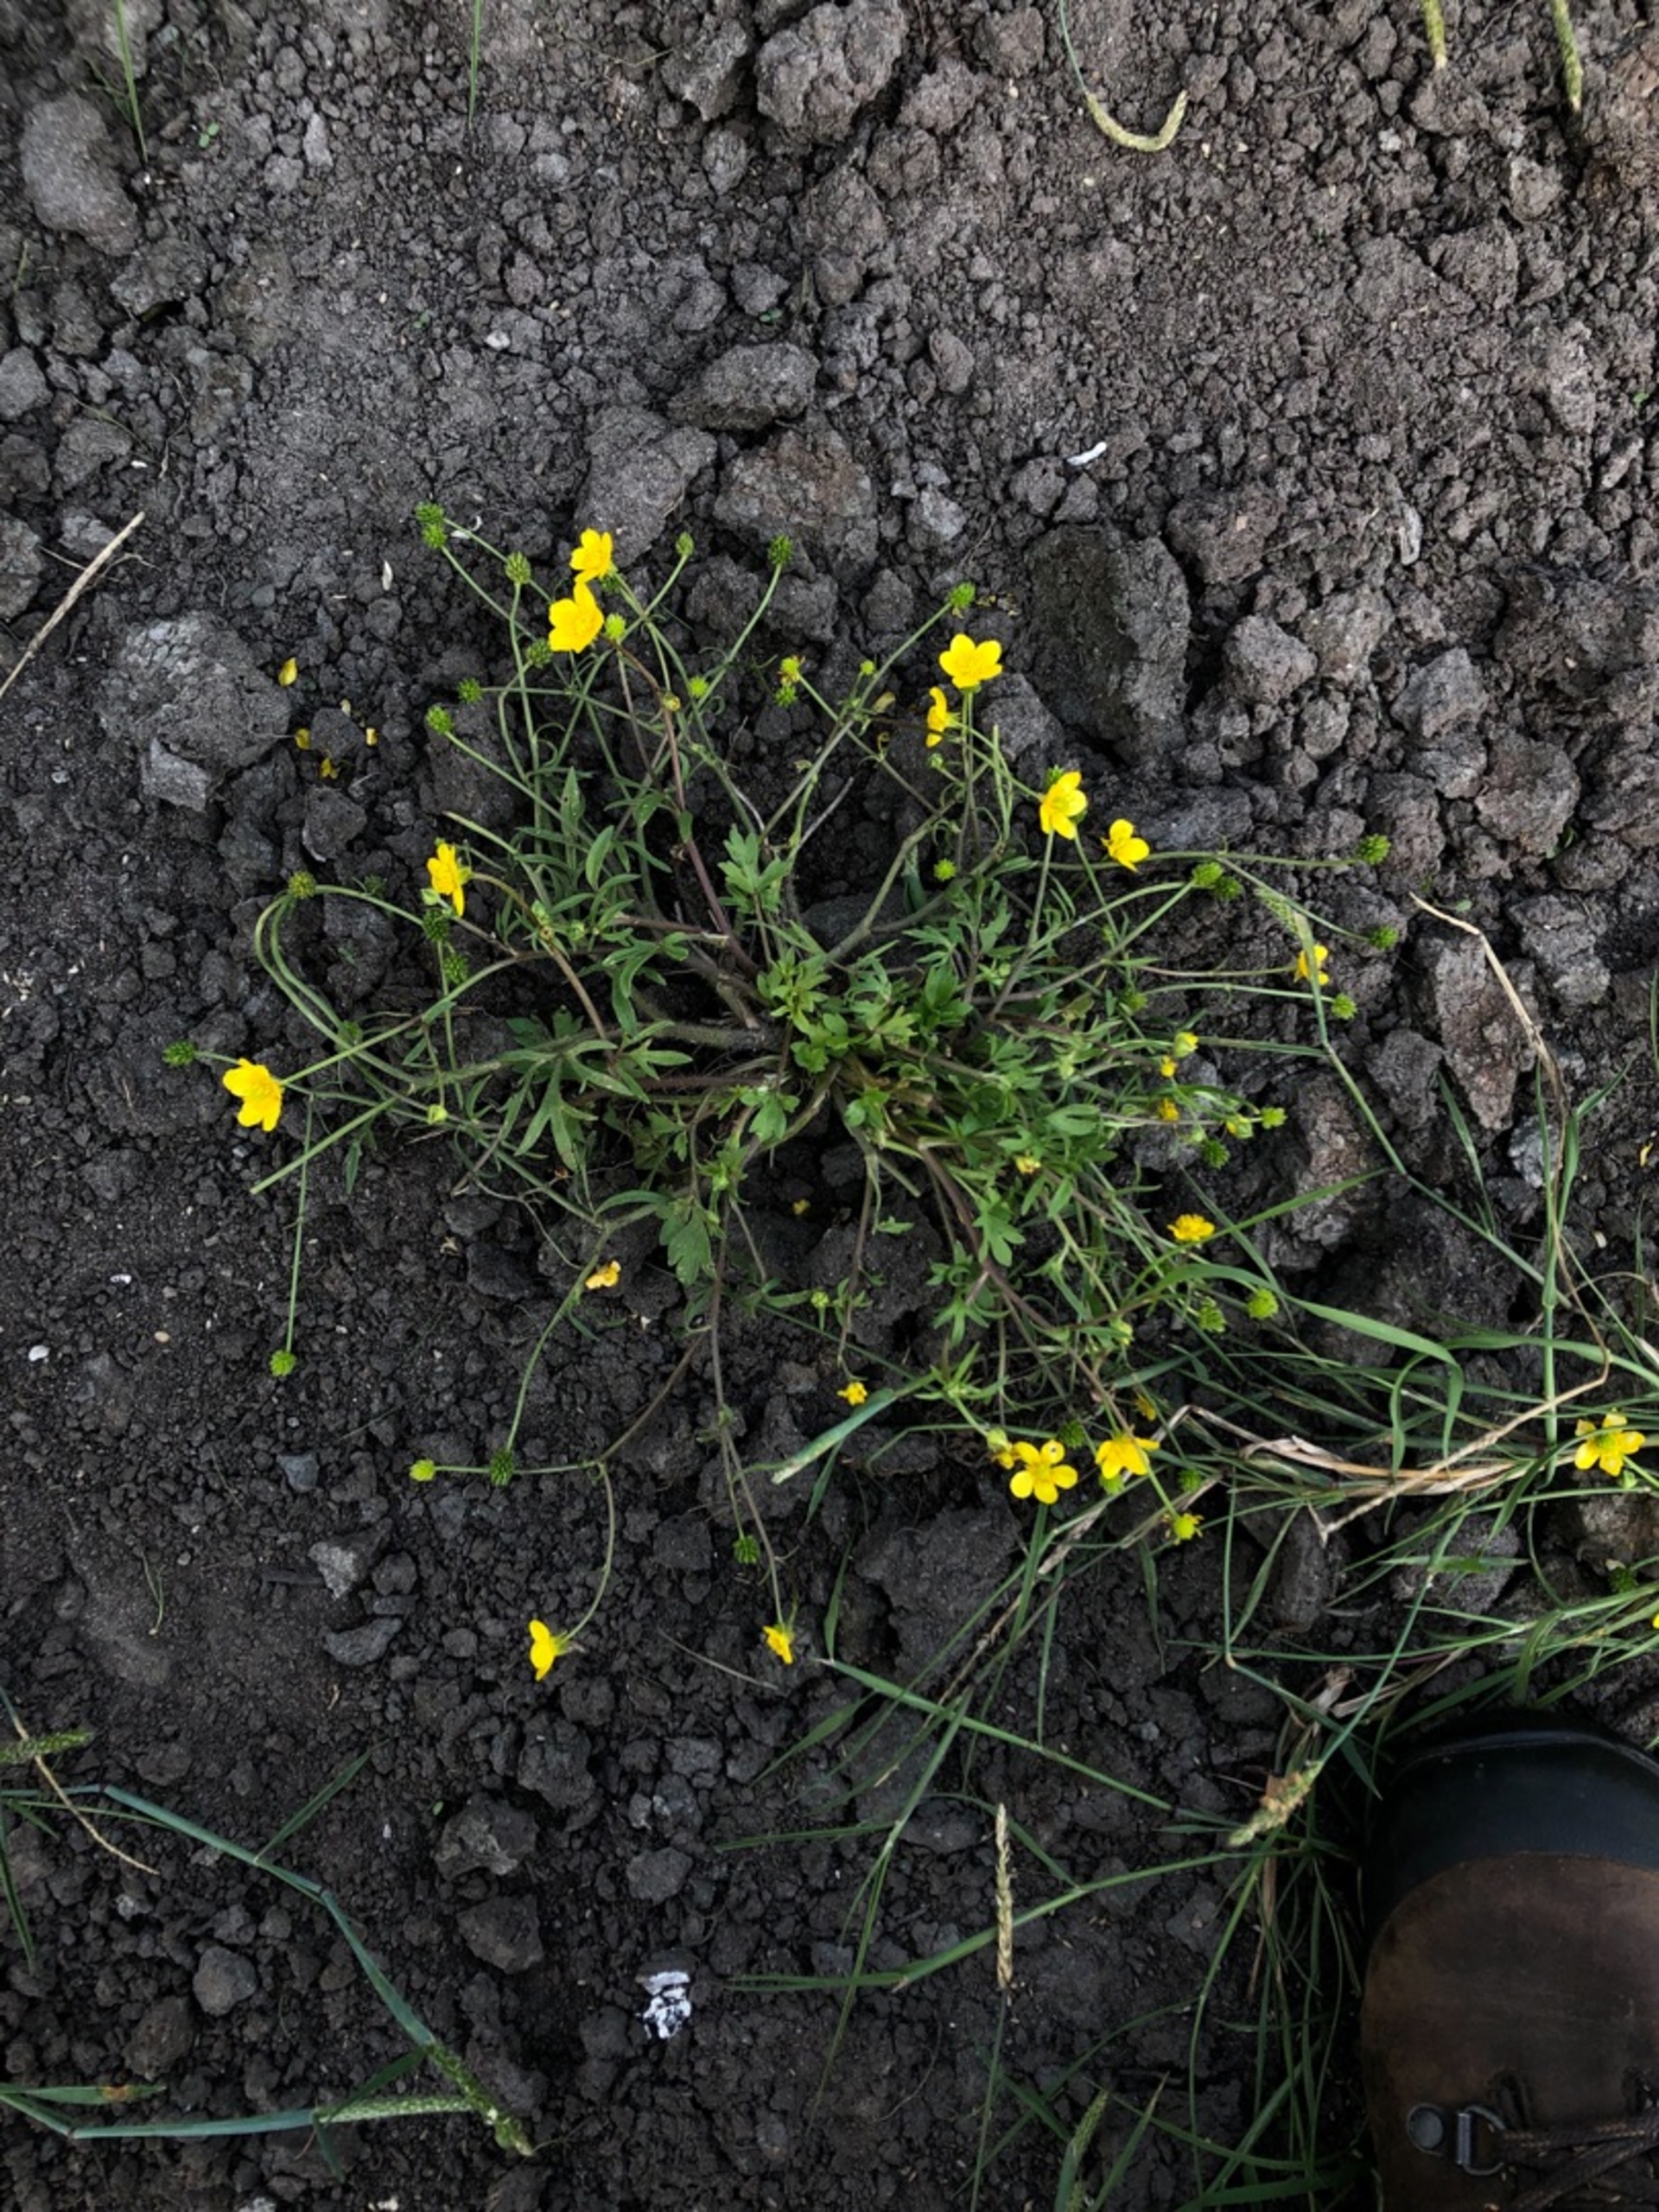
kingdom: Plantae
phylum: Tracheophyta
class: Magnoliopsida
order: Ranunculales
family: Ranunculaceae
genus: Ranunculus
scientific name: Ranunculus sardous
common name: Stivhåret ranunkel
